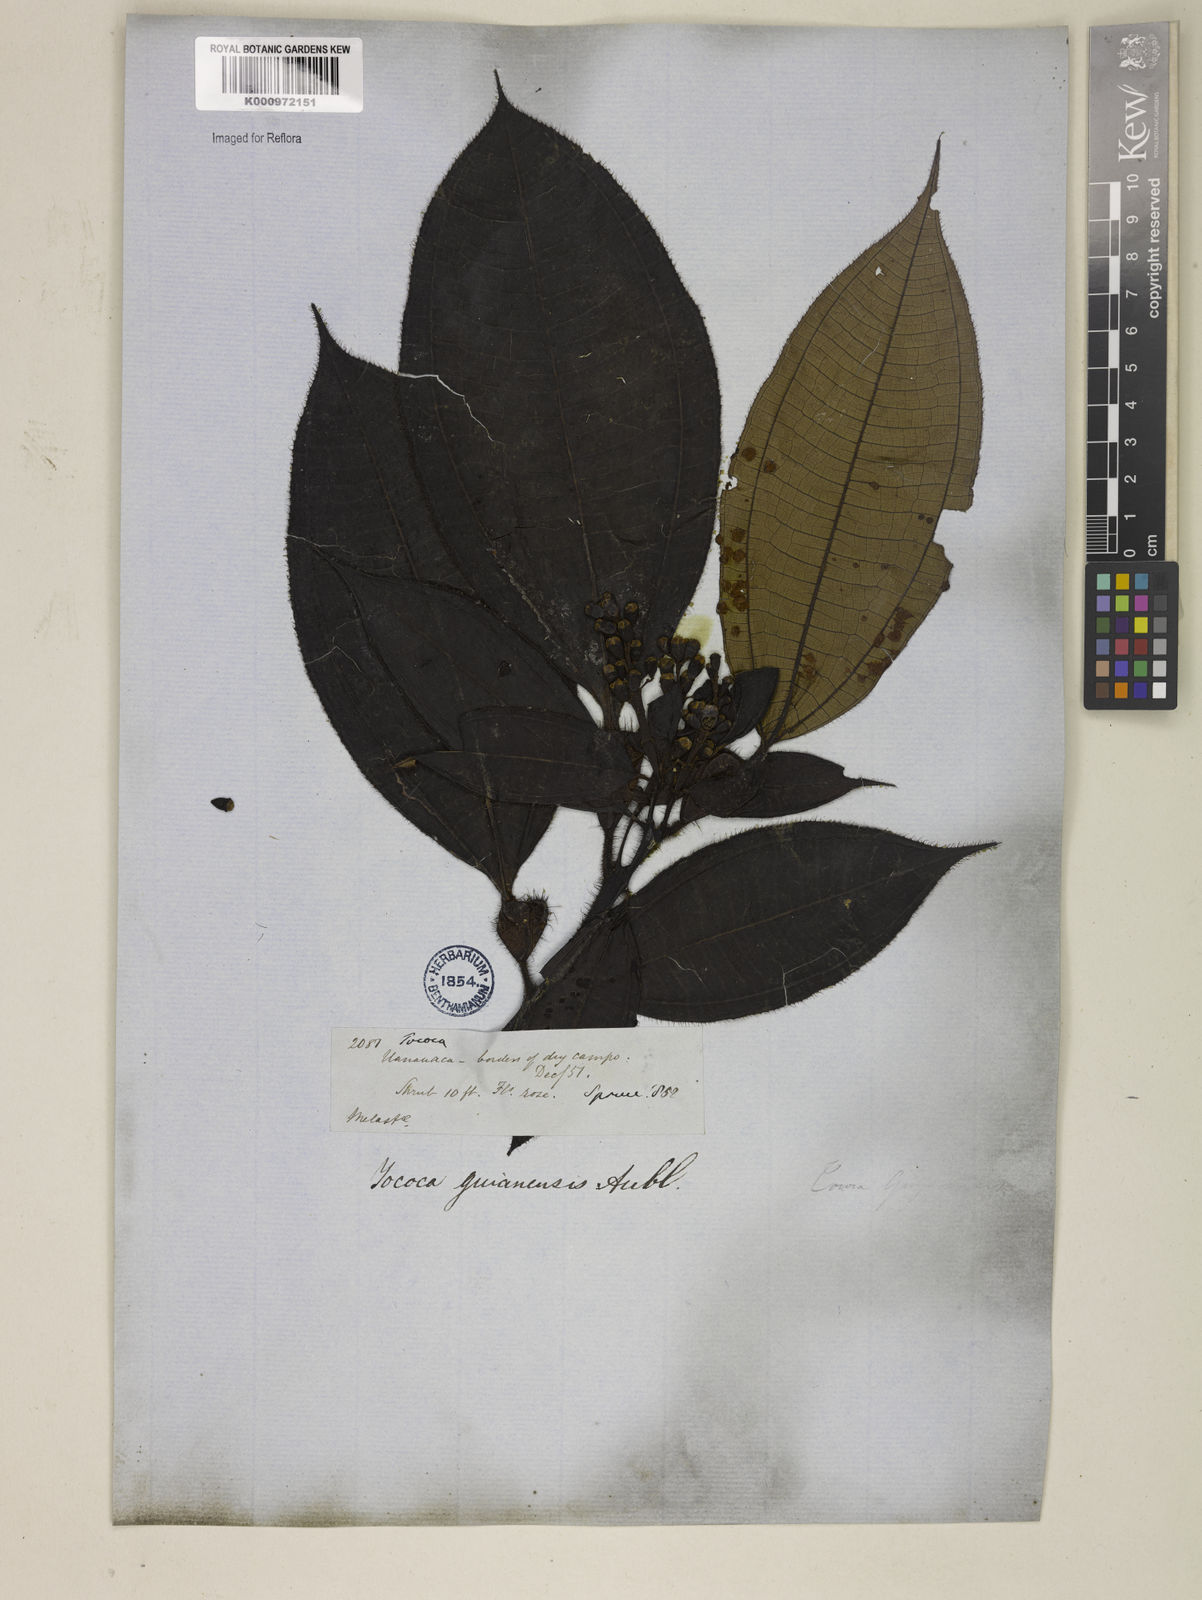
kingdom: Plantae
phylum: Tracheophyta
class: Magnoliopsida
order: Myrtales
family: Melastomataceae
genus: Miconia
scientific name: Miconia tococa
